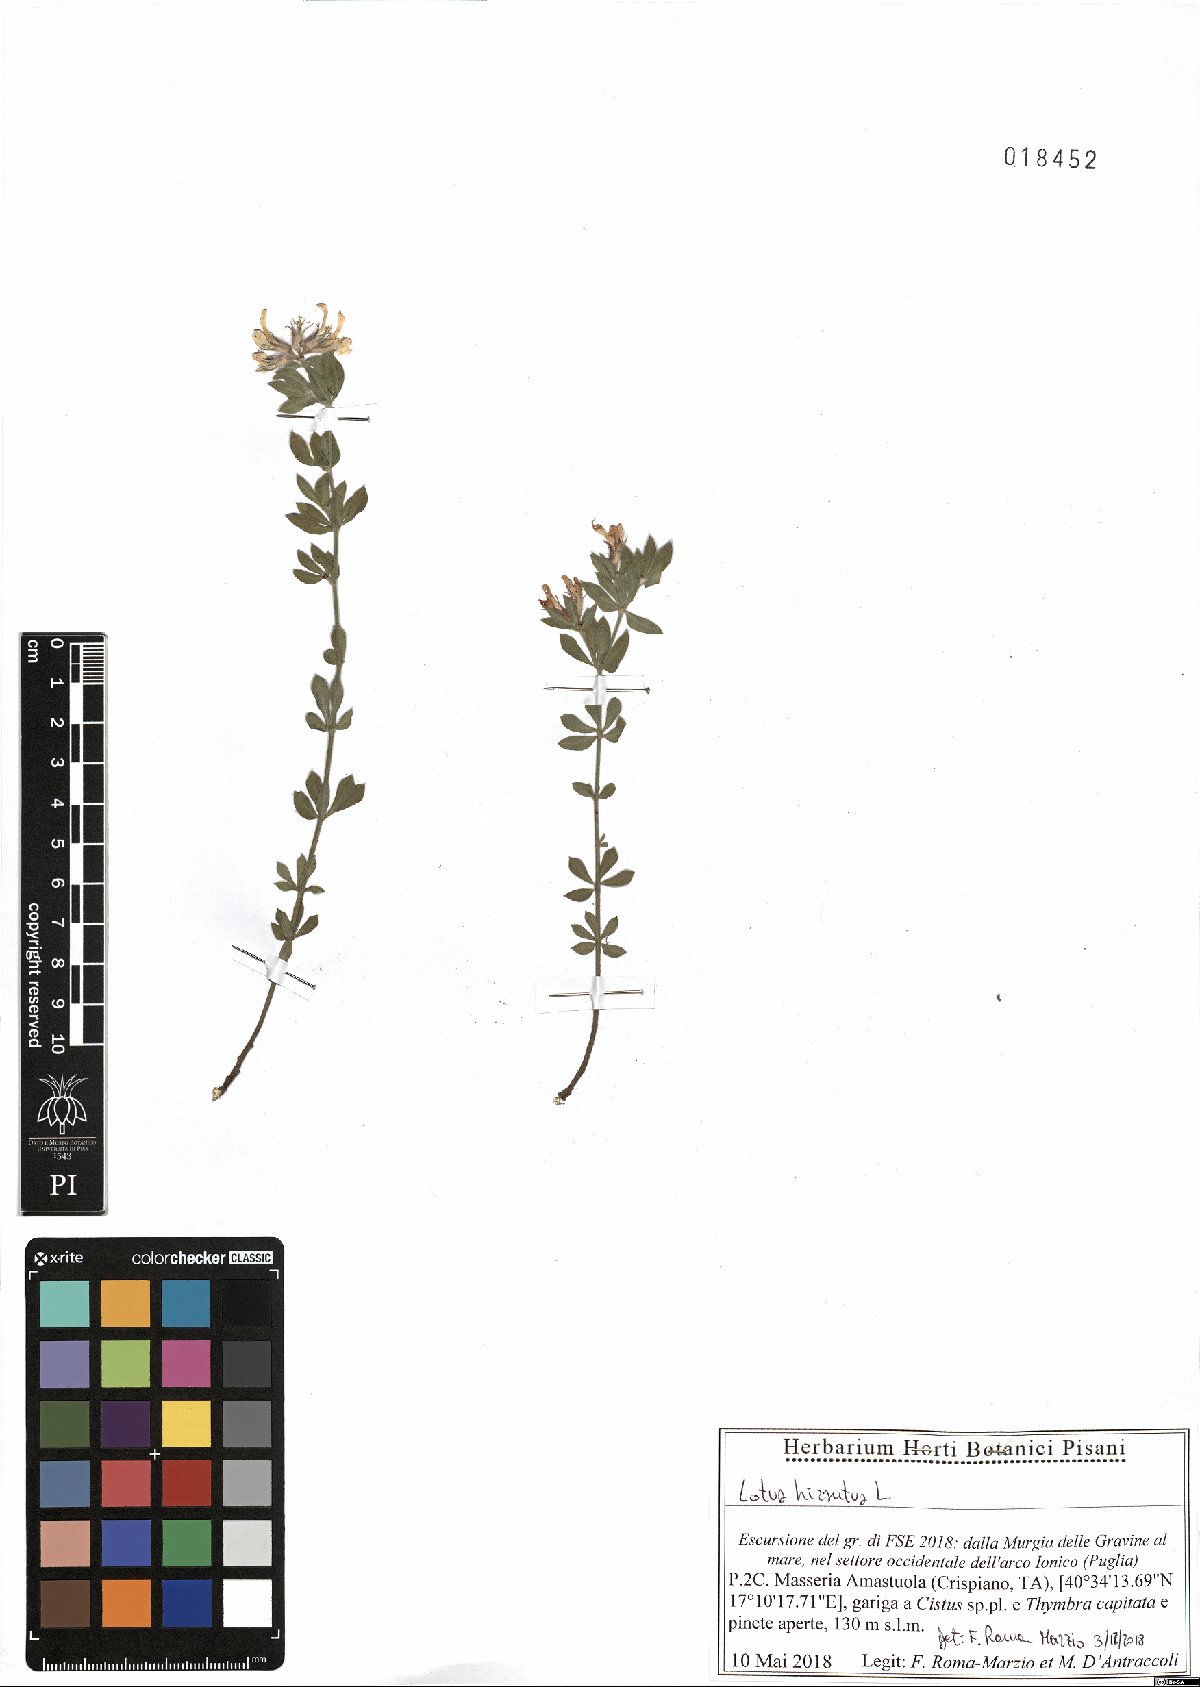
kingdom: Plantae
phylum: Tracheophyta
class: Magnoliopsida
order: Fabales
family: Fabaceae
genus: Lotus
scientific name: Lotus hirsutus
